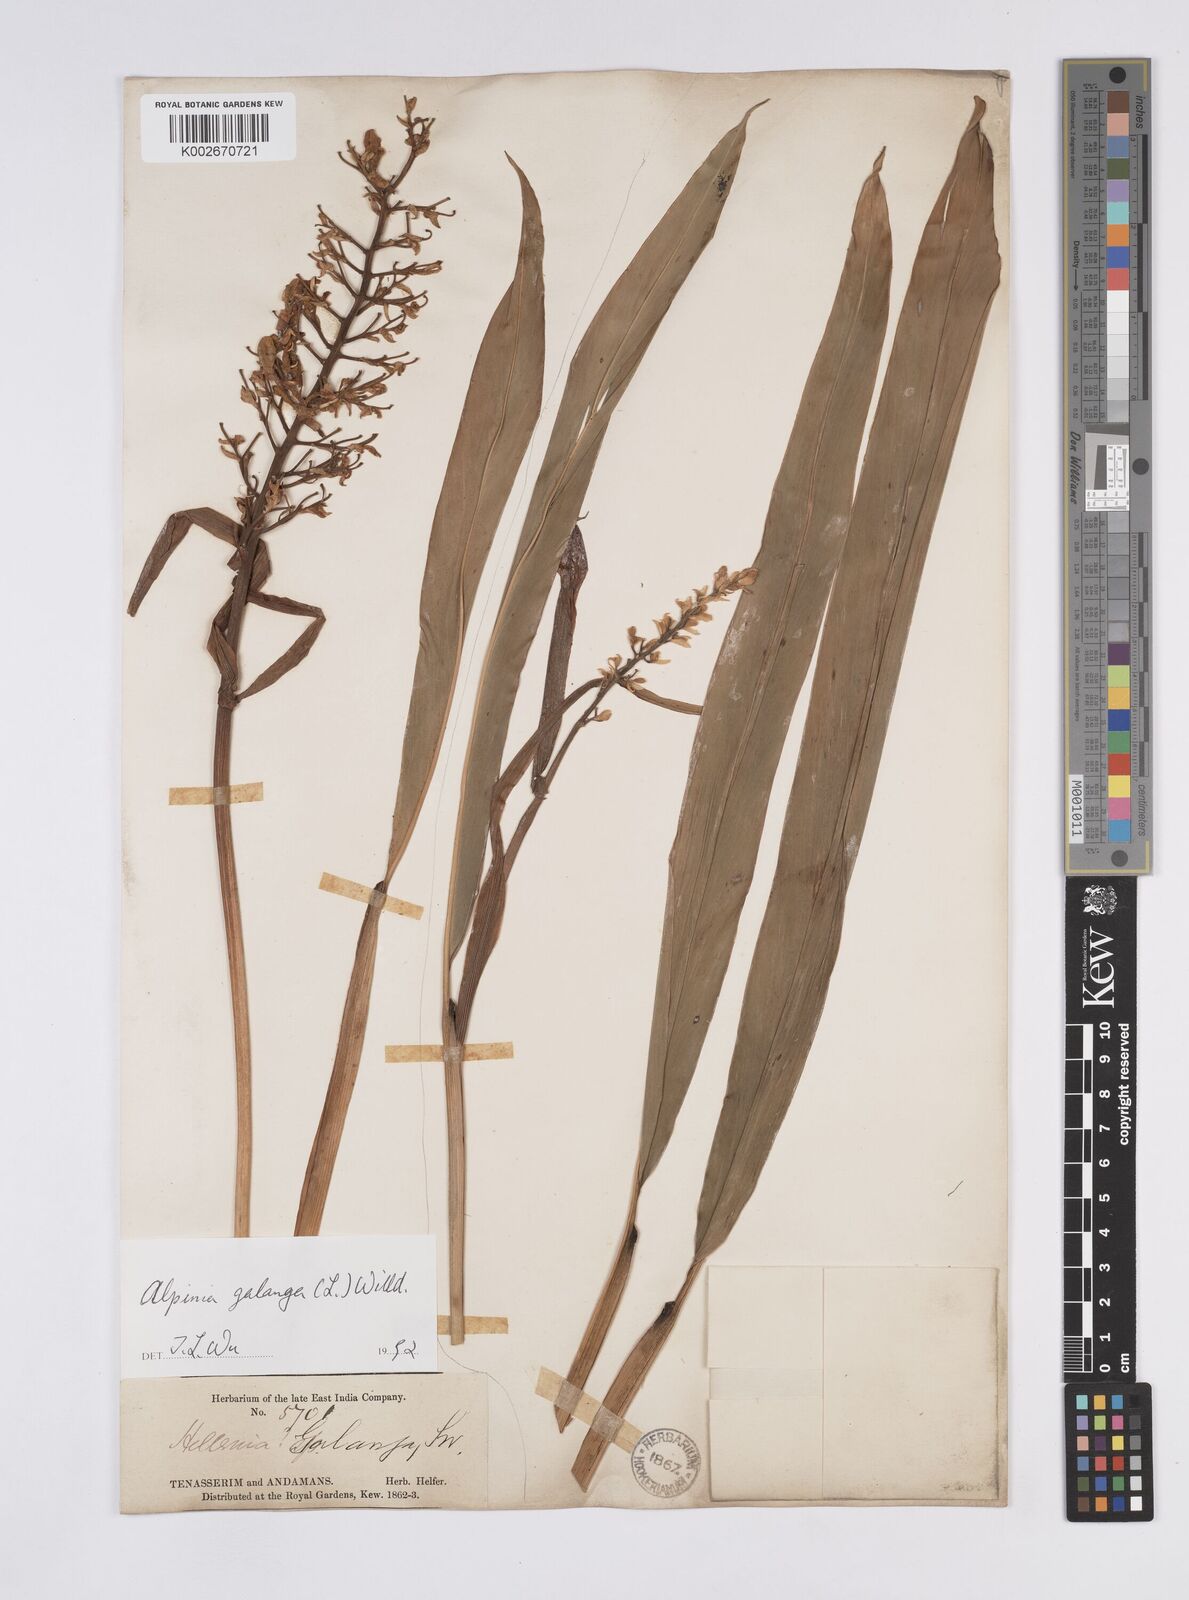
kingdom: Plantae
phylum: Tracheophyta
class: Liliopsida
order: Zingiberales
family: Zingiberaceae
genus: Alpinia
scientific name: Alpinia galanga
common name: Siamese-ginger
